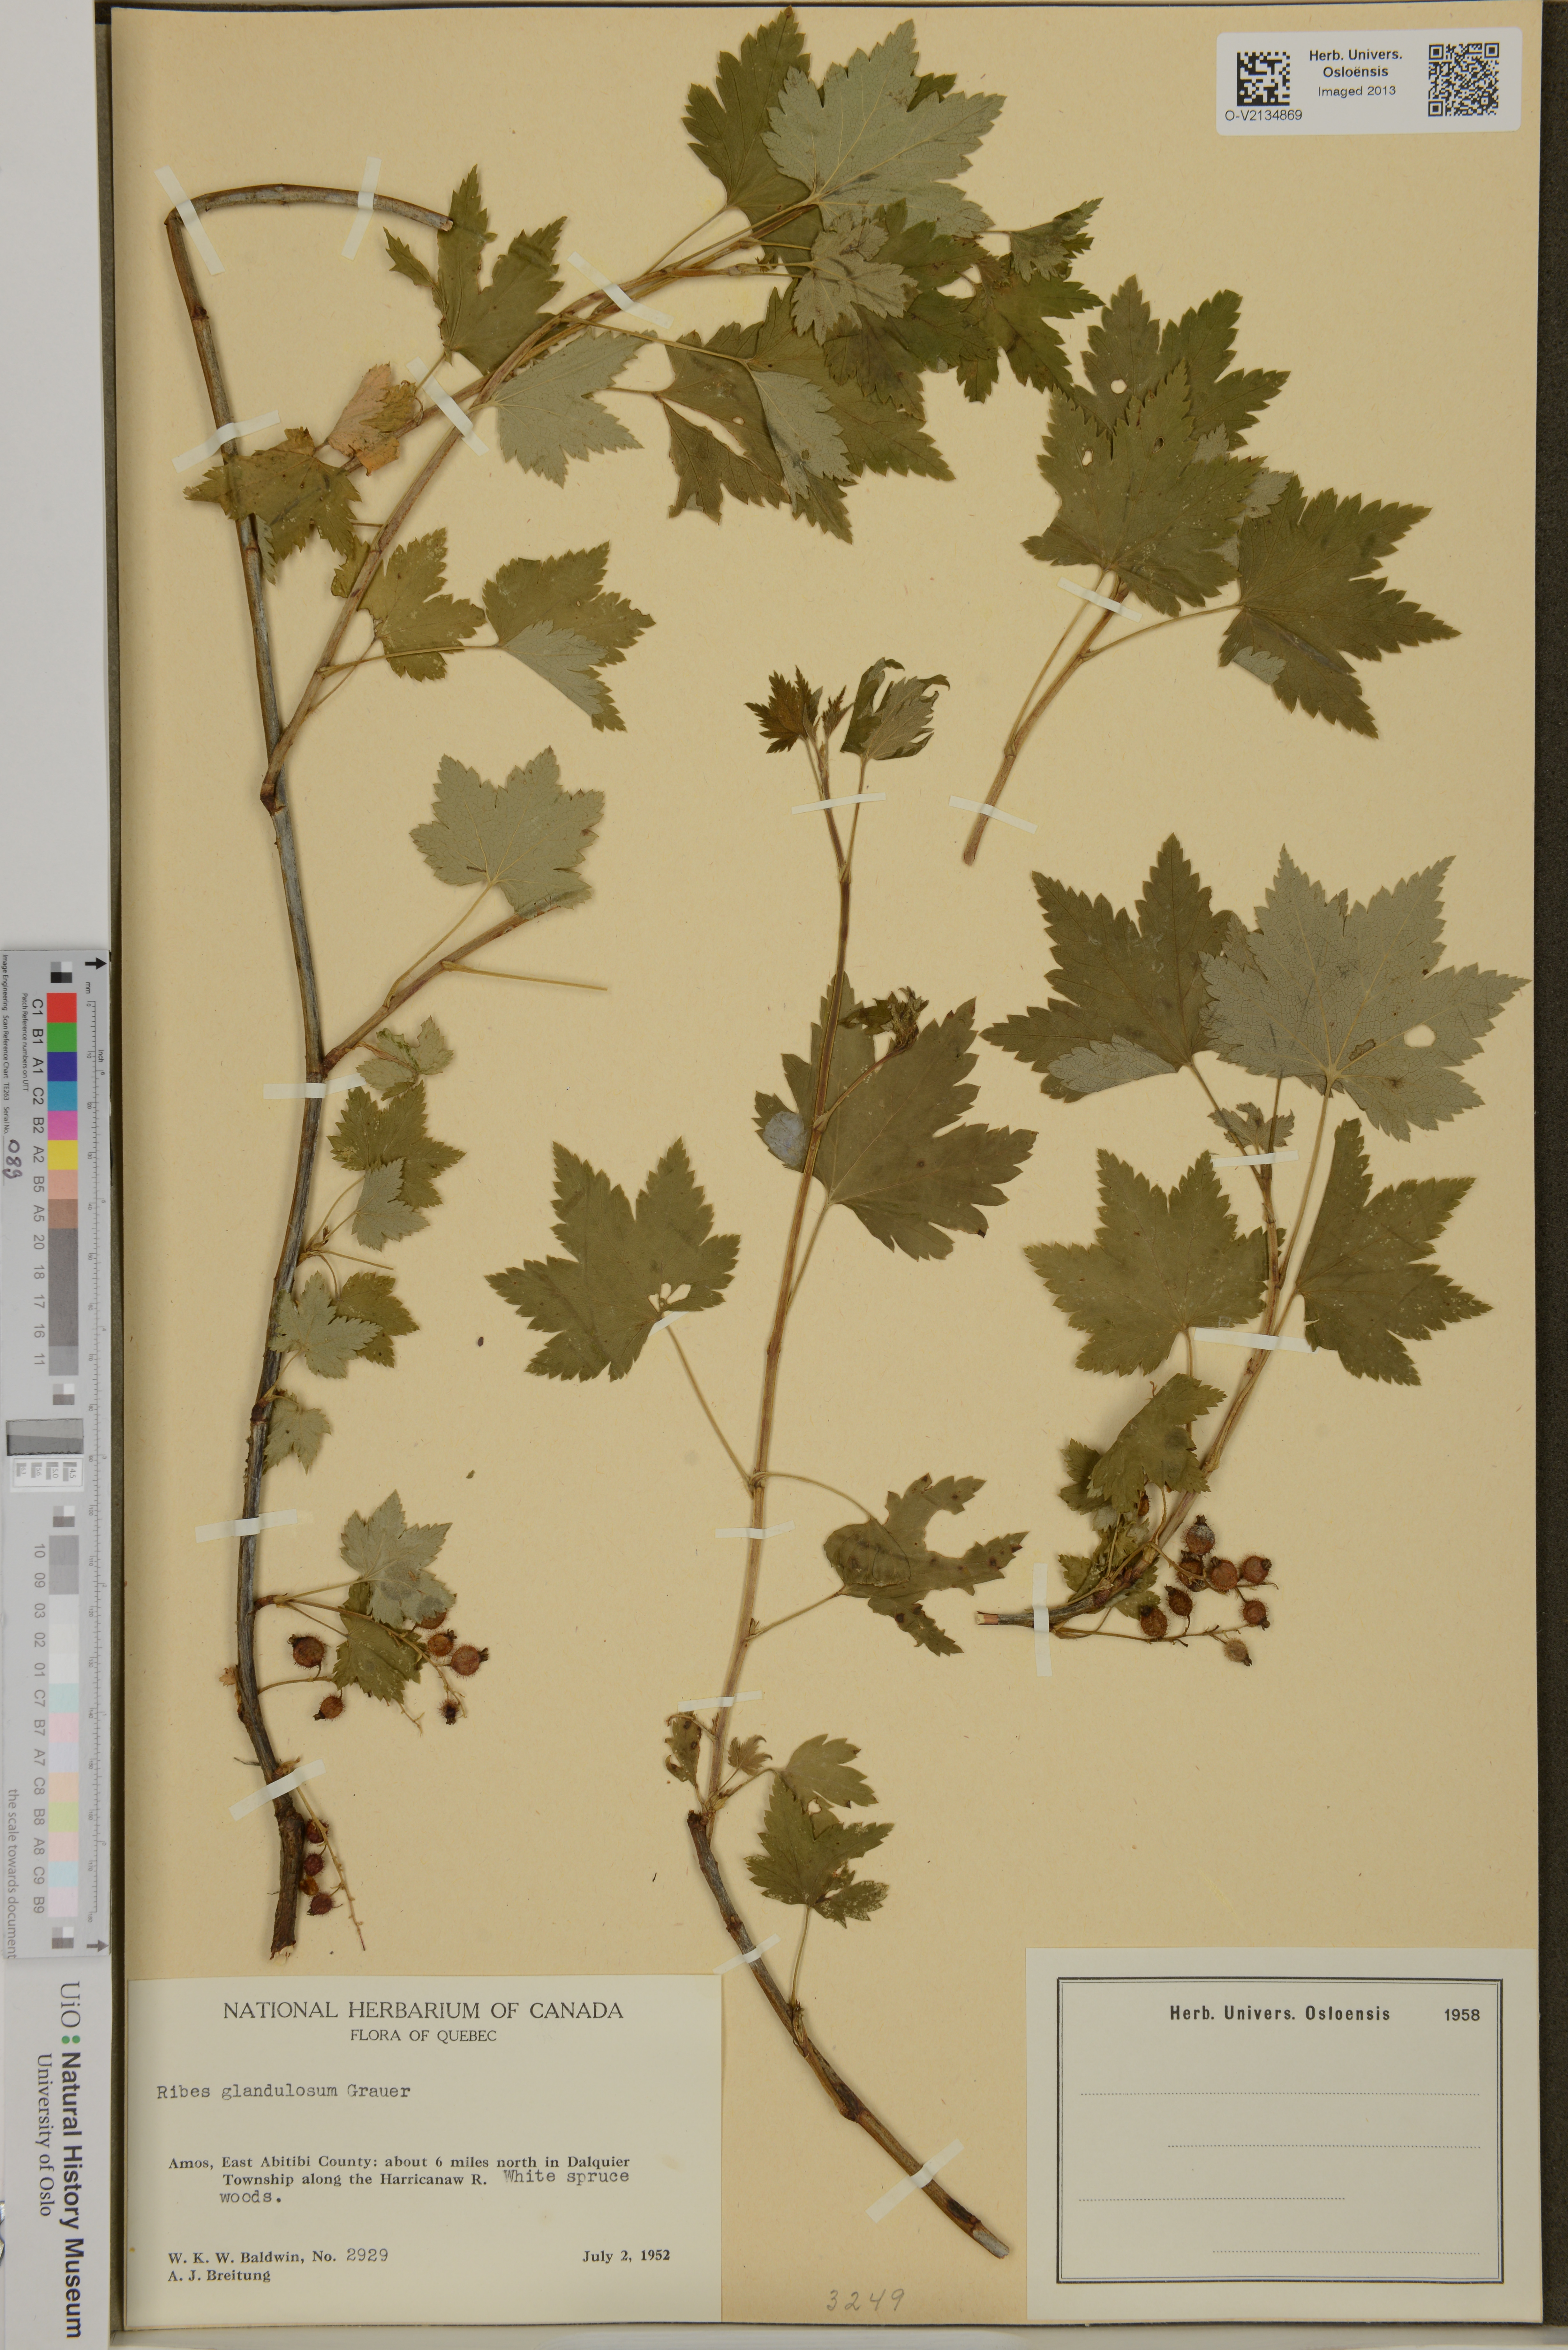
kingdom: Plantae
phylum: Tracheophyta
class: Magnoliopsida
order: Saxifragales
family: Grossulariaceae
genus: Ribes
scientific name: Ribes glandulosum
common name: Skunk currant
